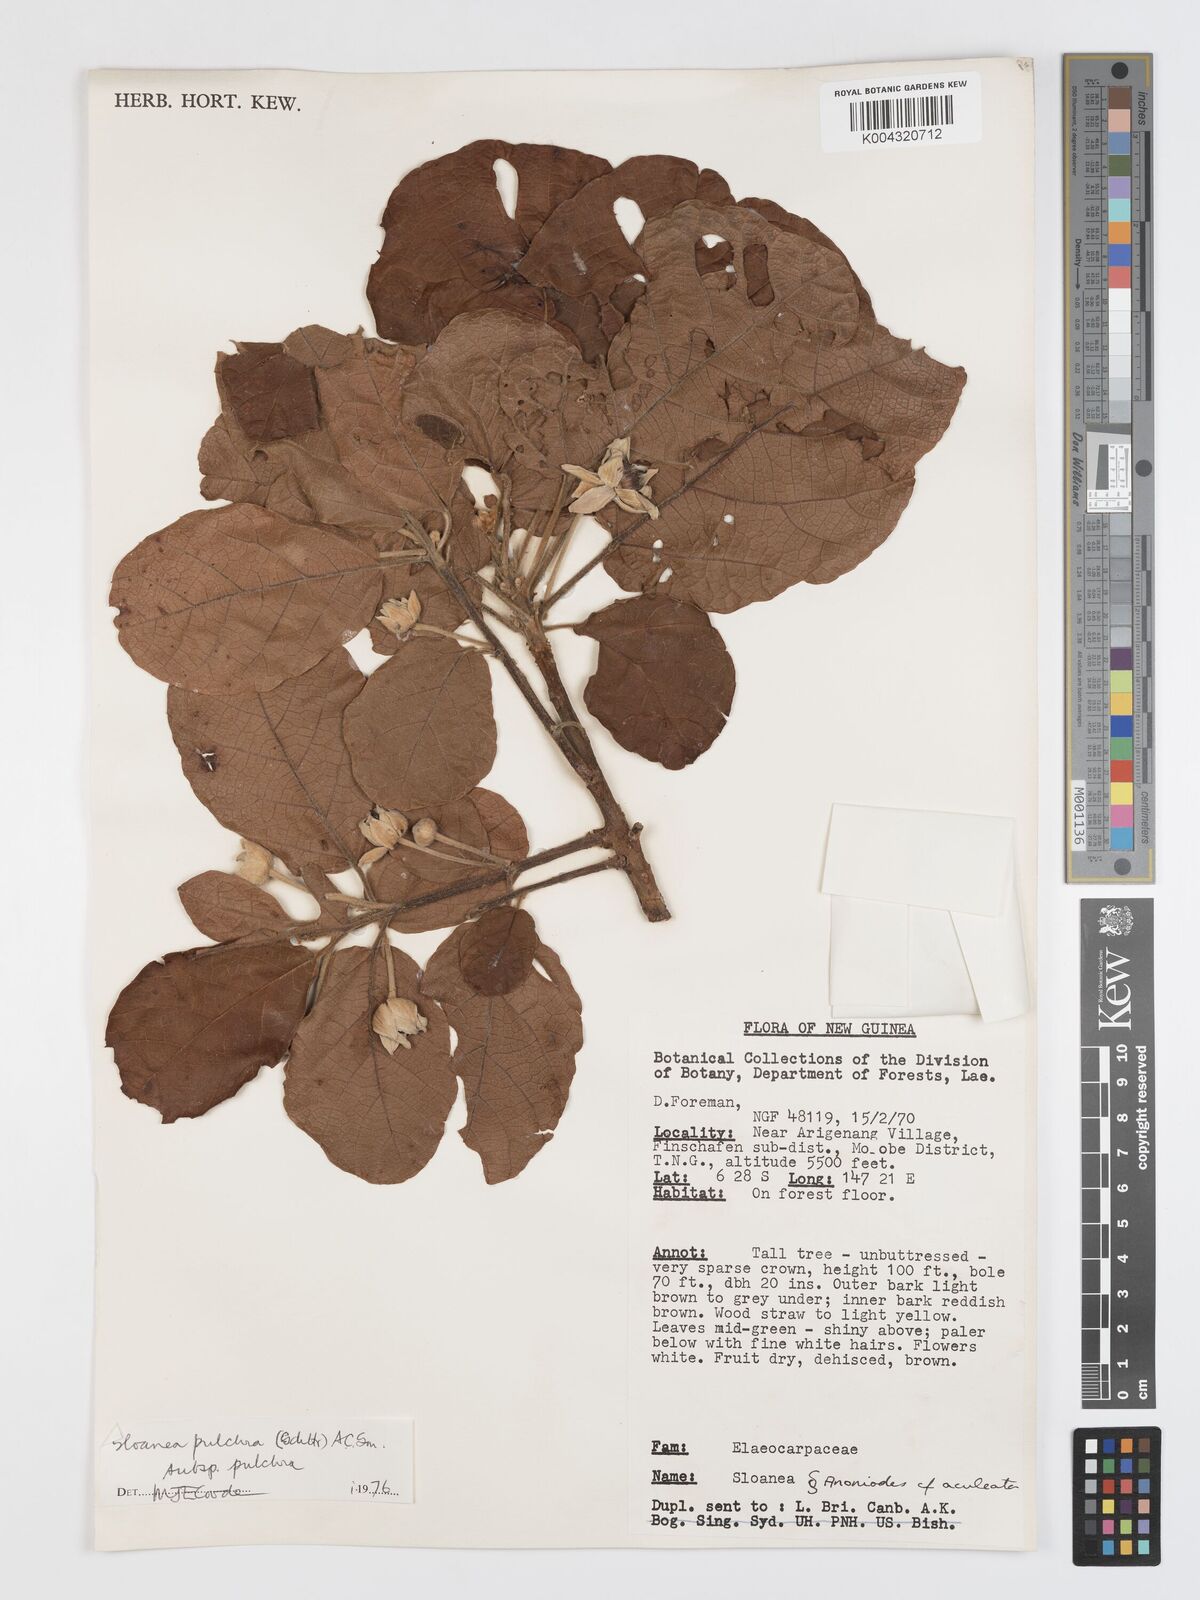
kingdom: Plantae
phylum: Tracheophyta
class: Magnoliopsida
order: Oxalidales
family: Elaeocarpaceae
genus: Sloanea
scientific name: Sloanea pulchra
